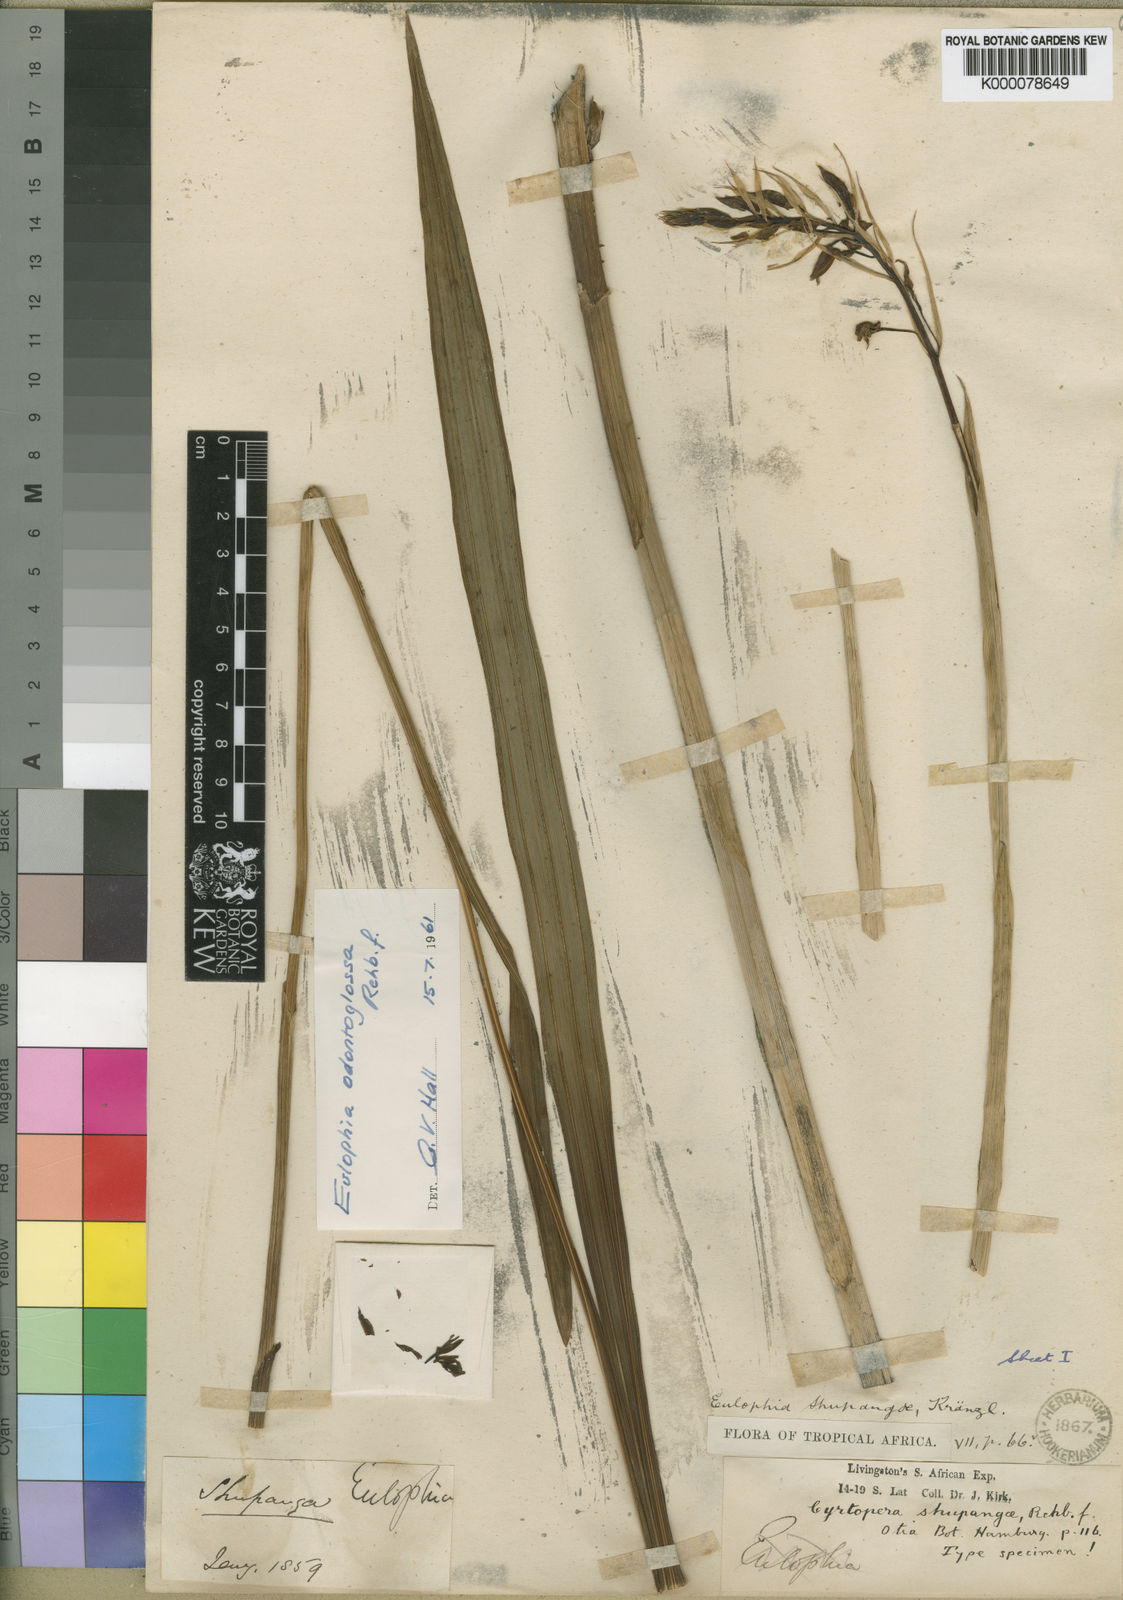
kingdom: Plantae
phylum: Tracheophyta
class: Liliopsida
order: Asparagales
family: Orchidaceae
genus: Eulophia
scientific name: Eulophia
